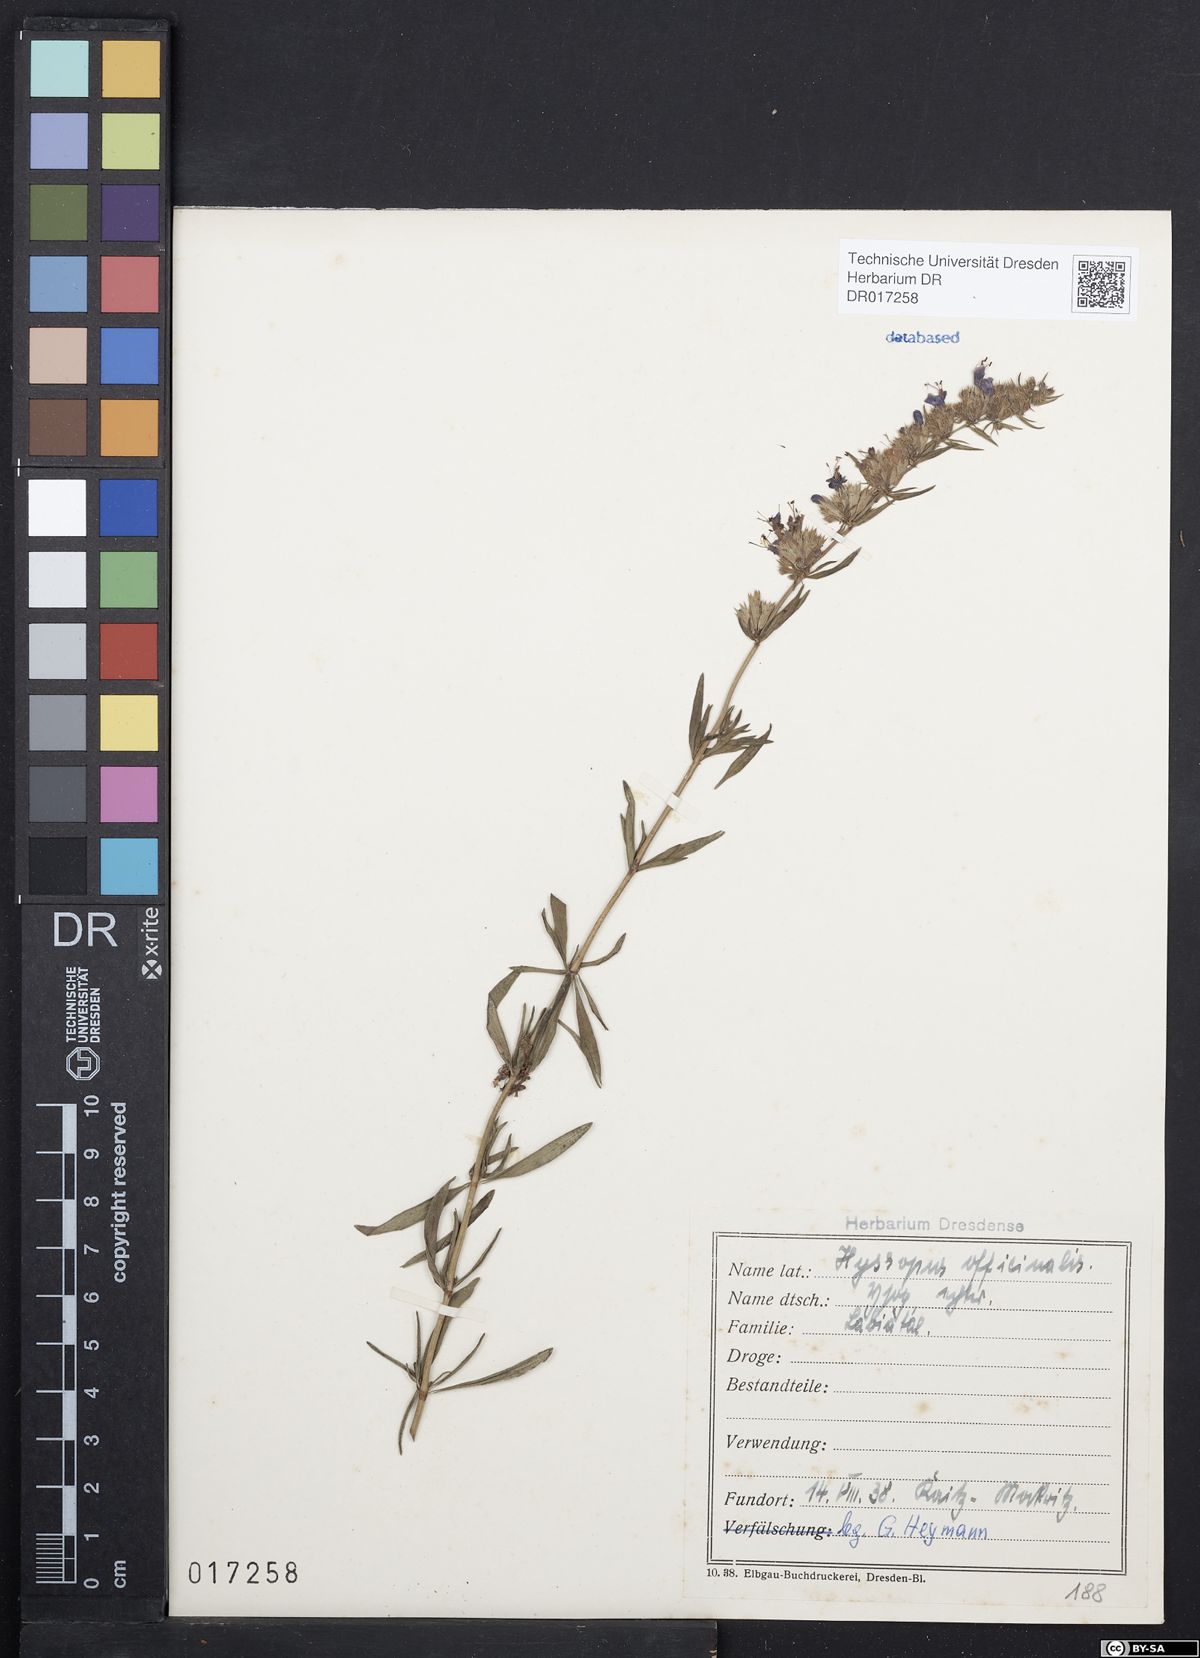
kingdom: Plantae
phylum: Tracheophyta
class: Magnoliopsida
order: Lamiales
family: Lamiaceae
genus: Hyssopus
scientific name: Hyssopus officinalis
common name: Hyssop
